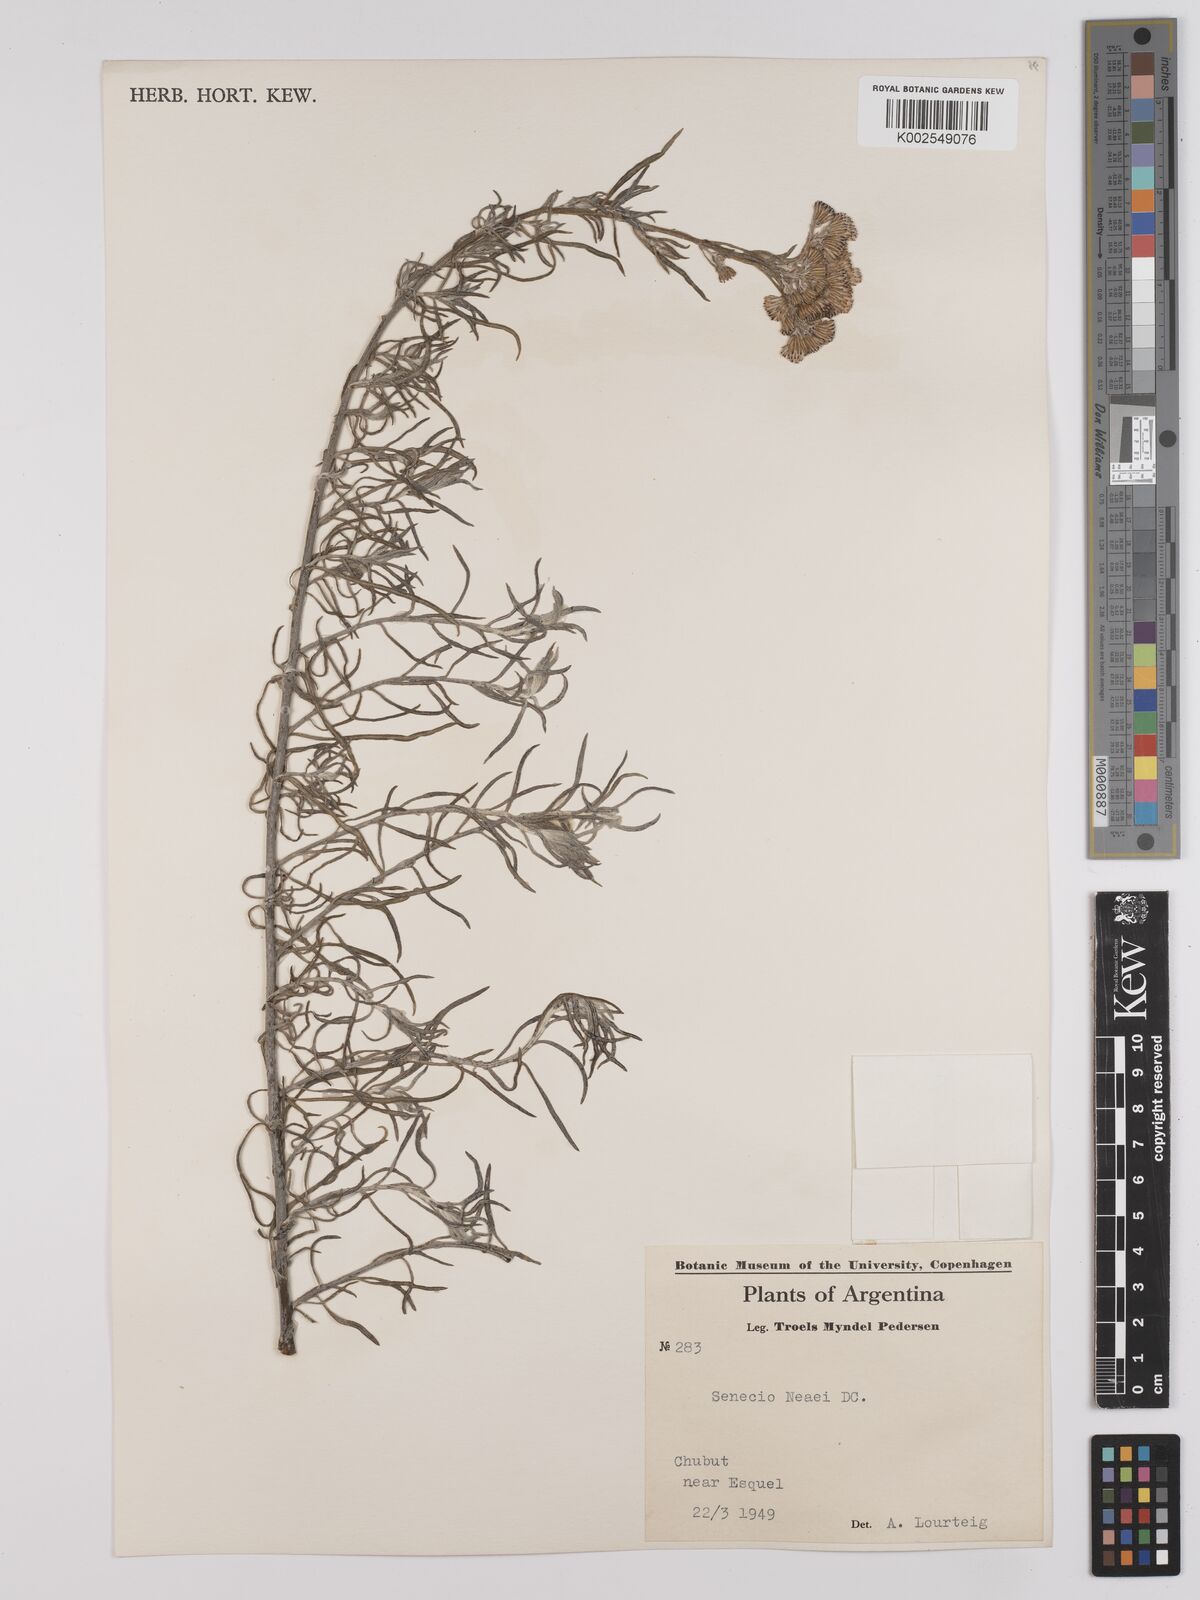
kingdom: Plantae
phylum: Tracheophyta
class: Magnoliopsida
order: Asterales
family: Asteraceae
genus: Senecio
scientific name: Senecio neaei
